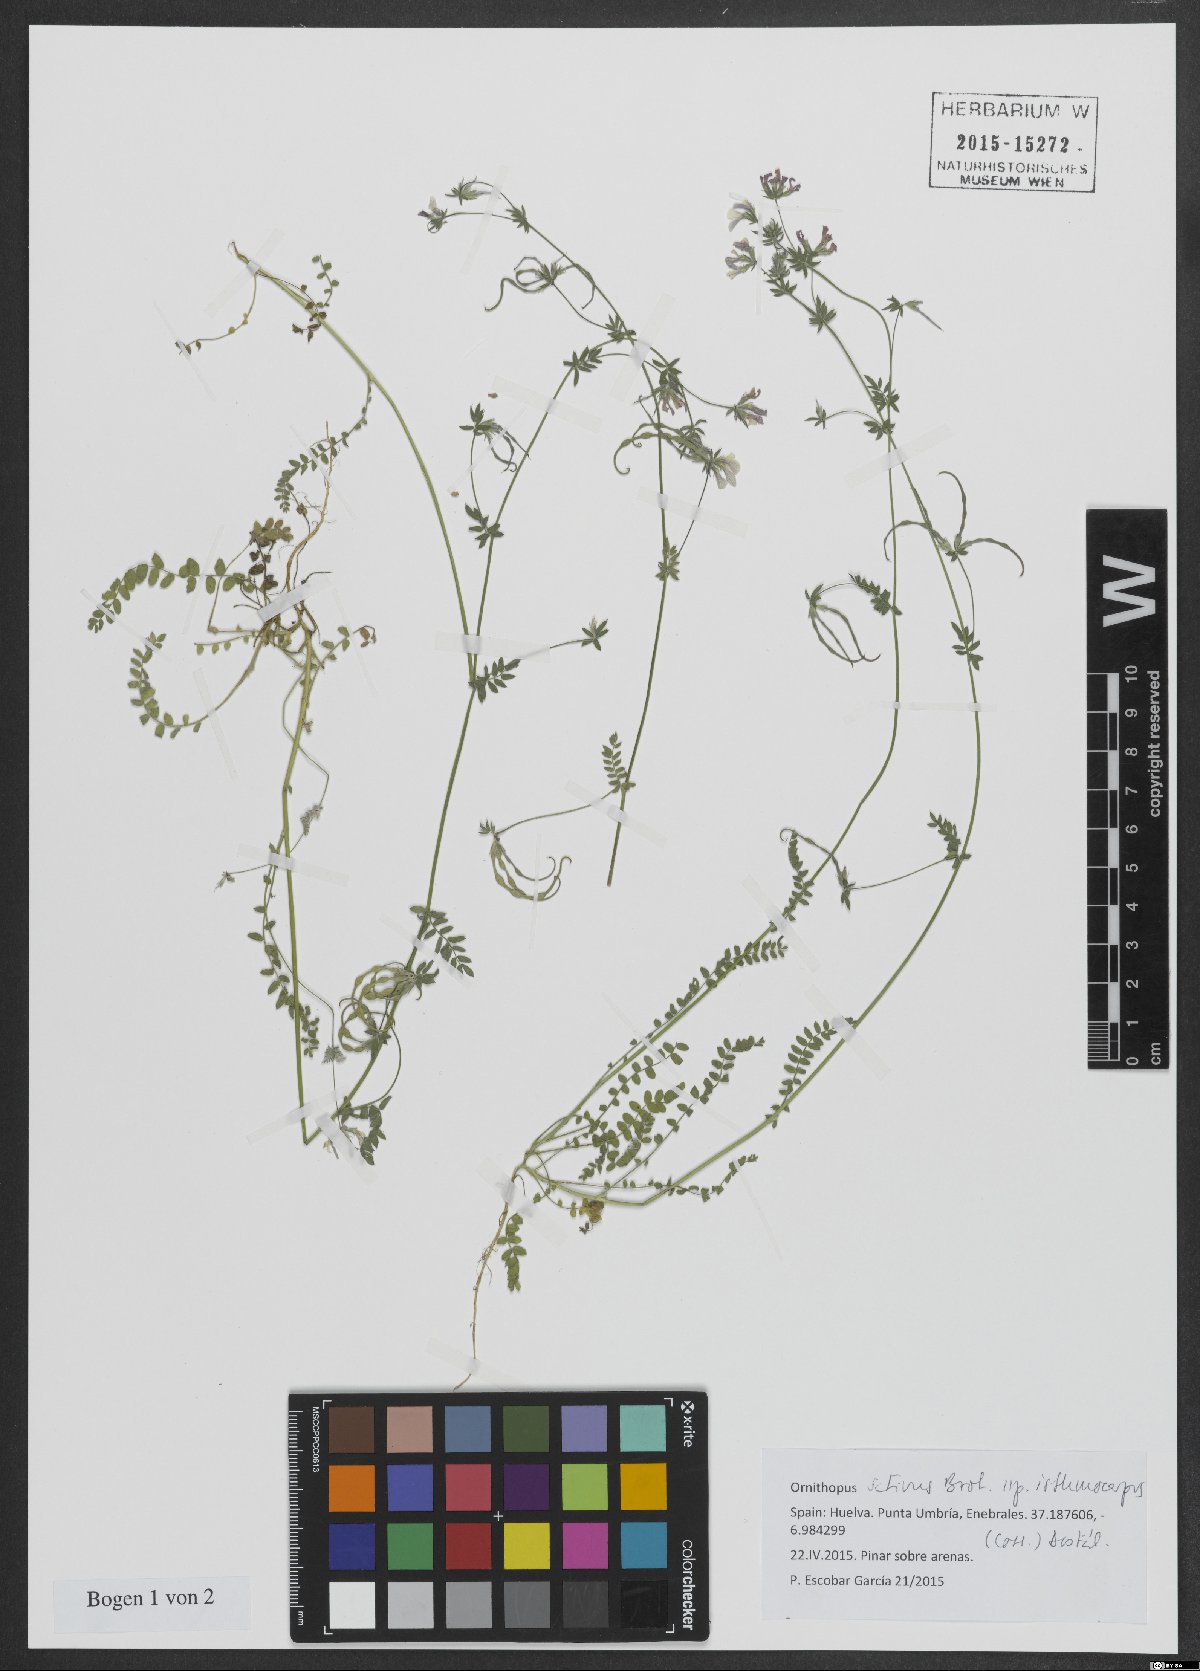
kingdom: Plantae
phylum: Tracheophyta
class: Magnoliopsida
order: Fabales
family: Fabaceae
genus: Ornithopus
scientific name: Ornithopus sativus
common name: Serradella
